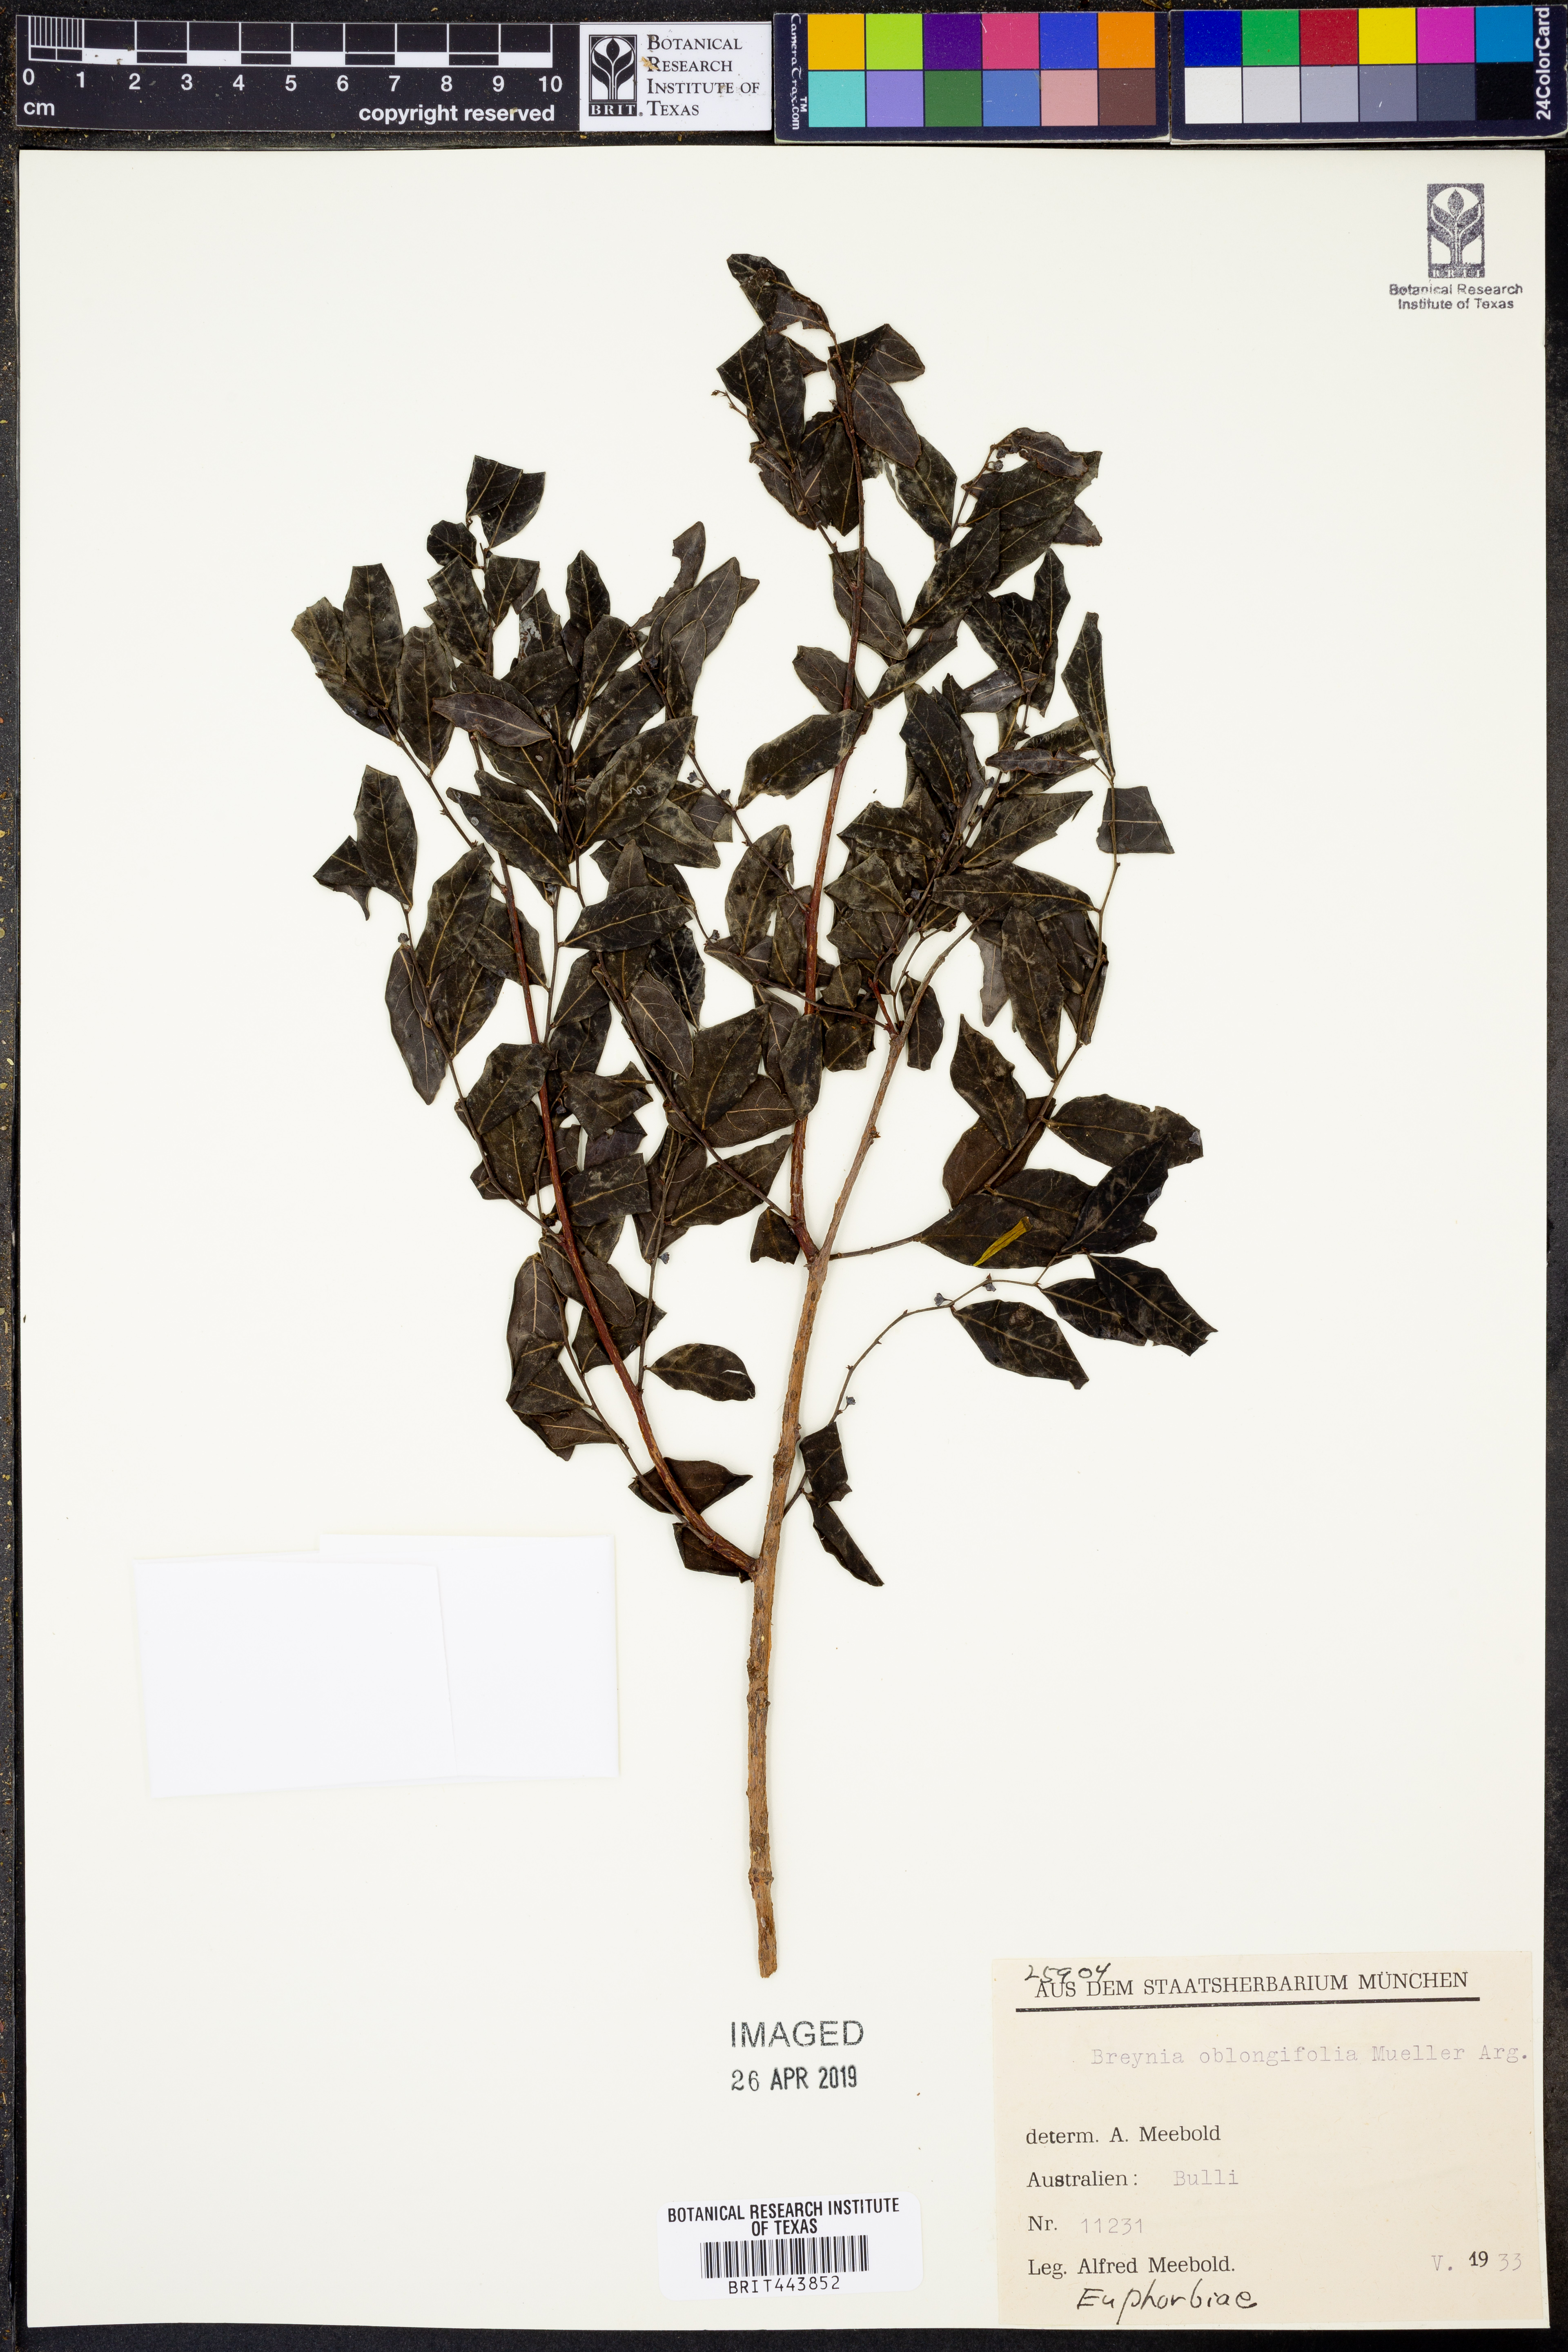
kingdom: Plantae
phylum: Tracheophyta
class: Magnoliopsida
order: Malpighiales
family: Phyllanthaceae
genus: Breynia
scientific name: Breynia oblongifolia
